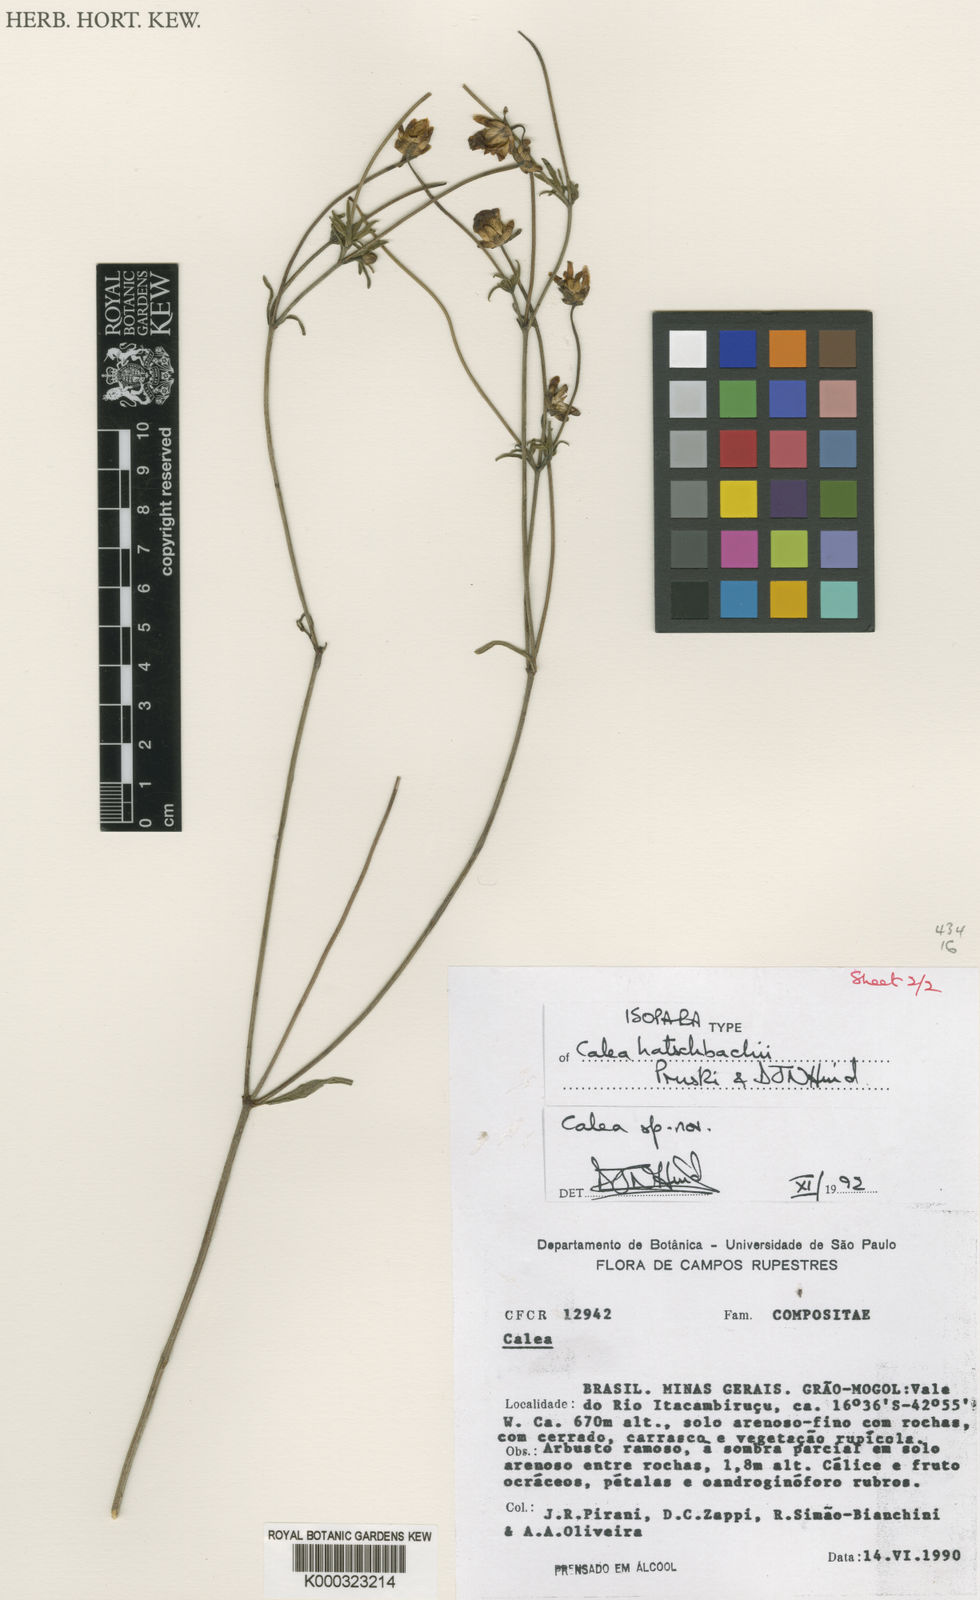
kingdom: Plantae
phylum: Tracheophyta
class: Magnoliopsida
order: Asterales
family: Asteraceae
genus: Calea
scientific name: Calea hatschbachii
